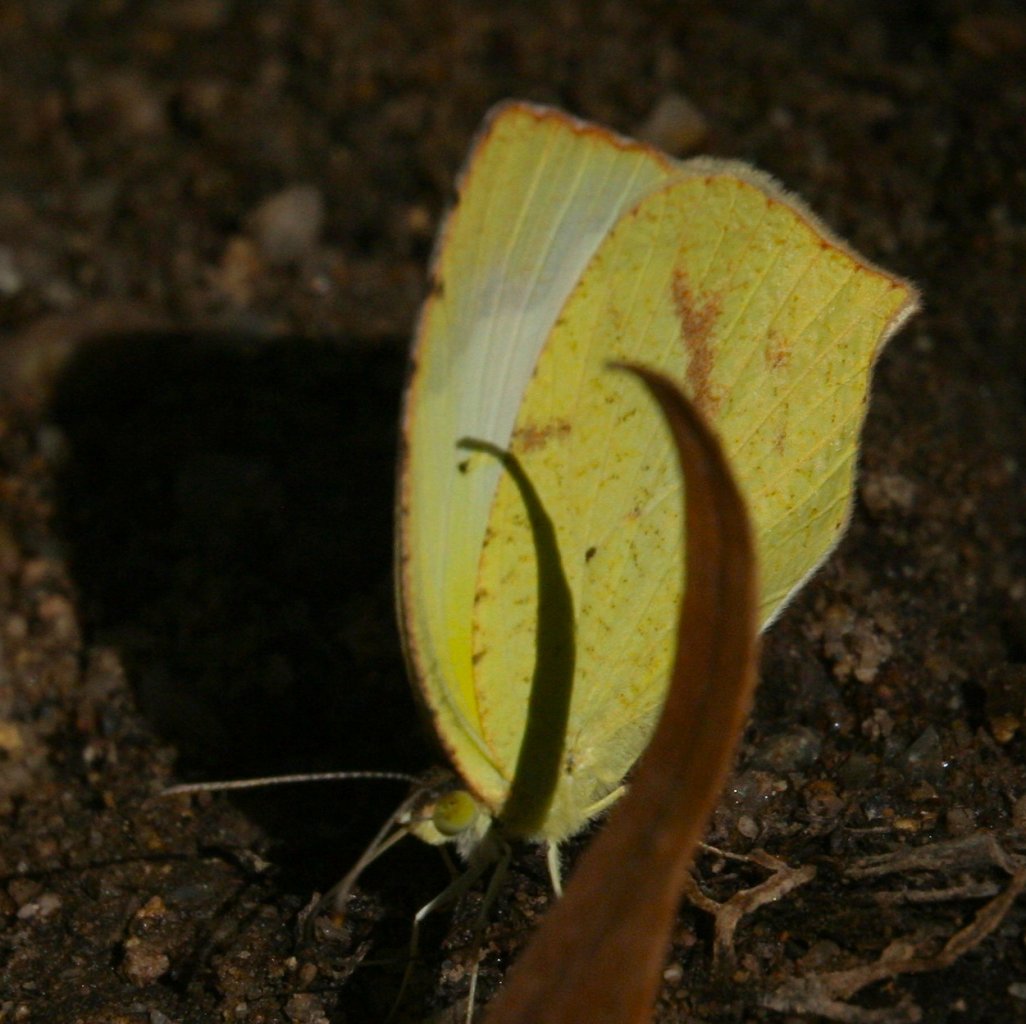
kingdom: Animalia
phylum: Arthropoda
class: Insecta
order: Lepidoptera
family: Pieridae
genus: Eurema
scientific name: Eurema mexicana
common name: Mexican Yellow
